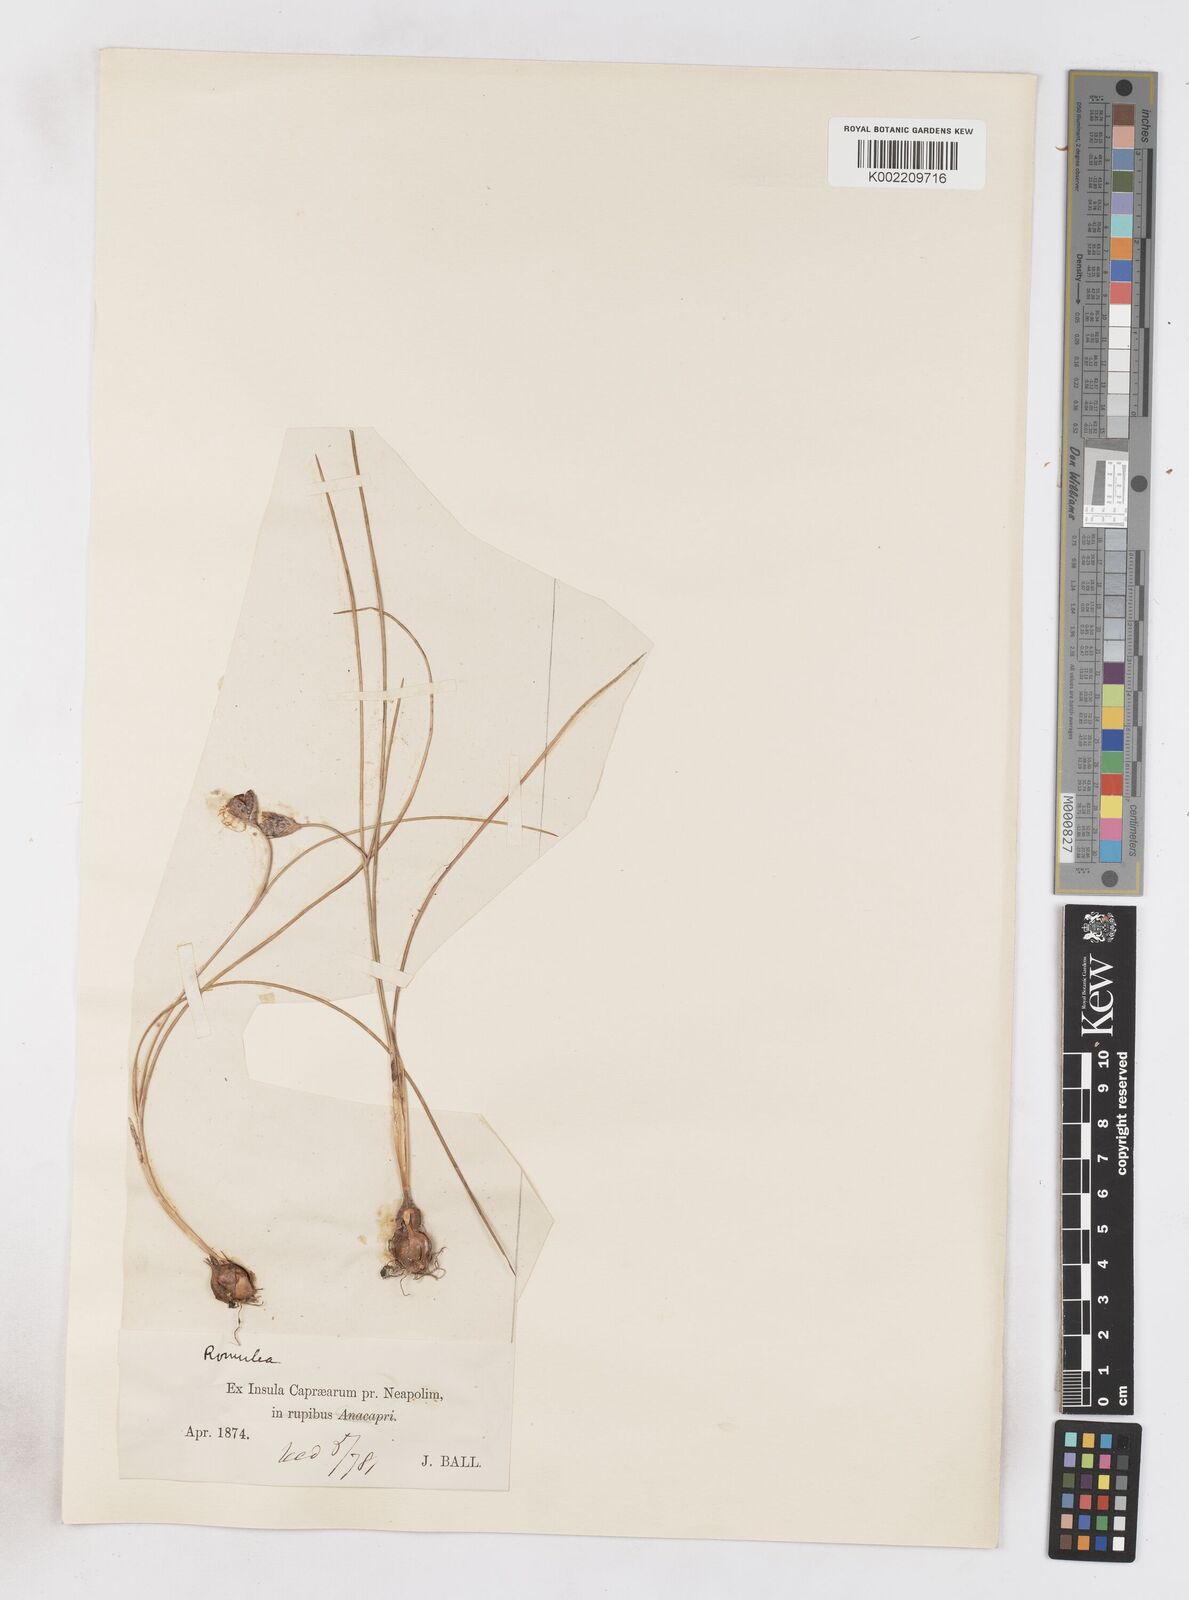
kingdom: Plantae
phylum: Tracheophyta
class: Liliopsida
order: Asparagales
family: Iridaceae
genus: Romulea
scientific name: Romulea ramiflora
